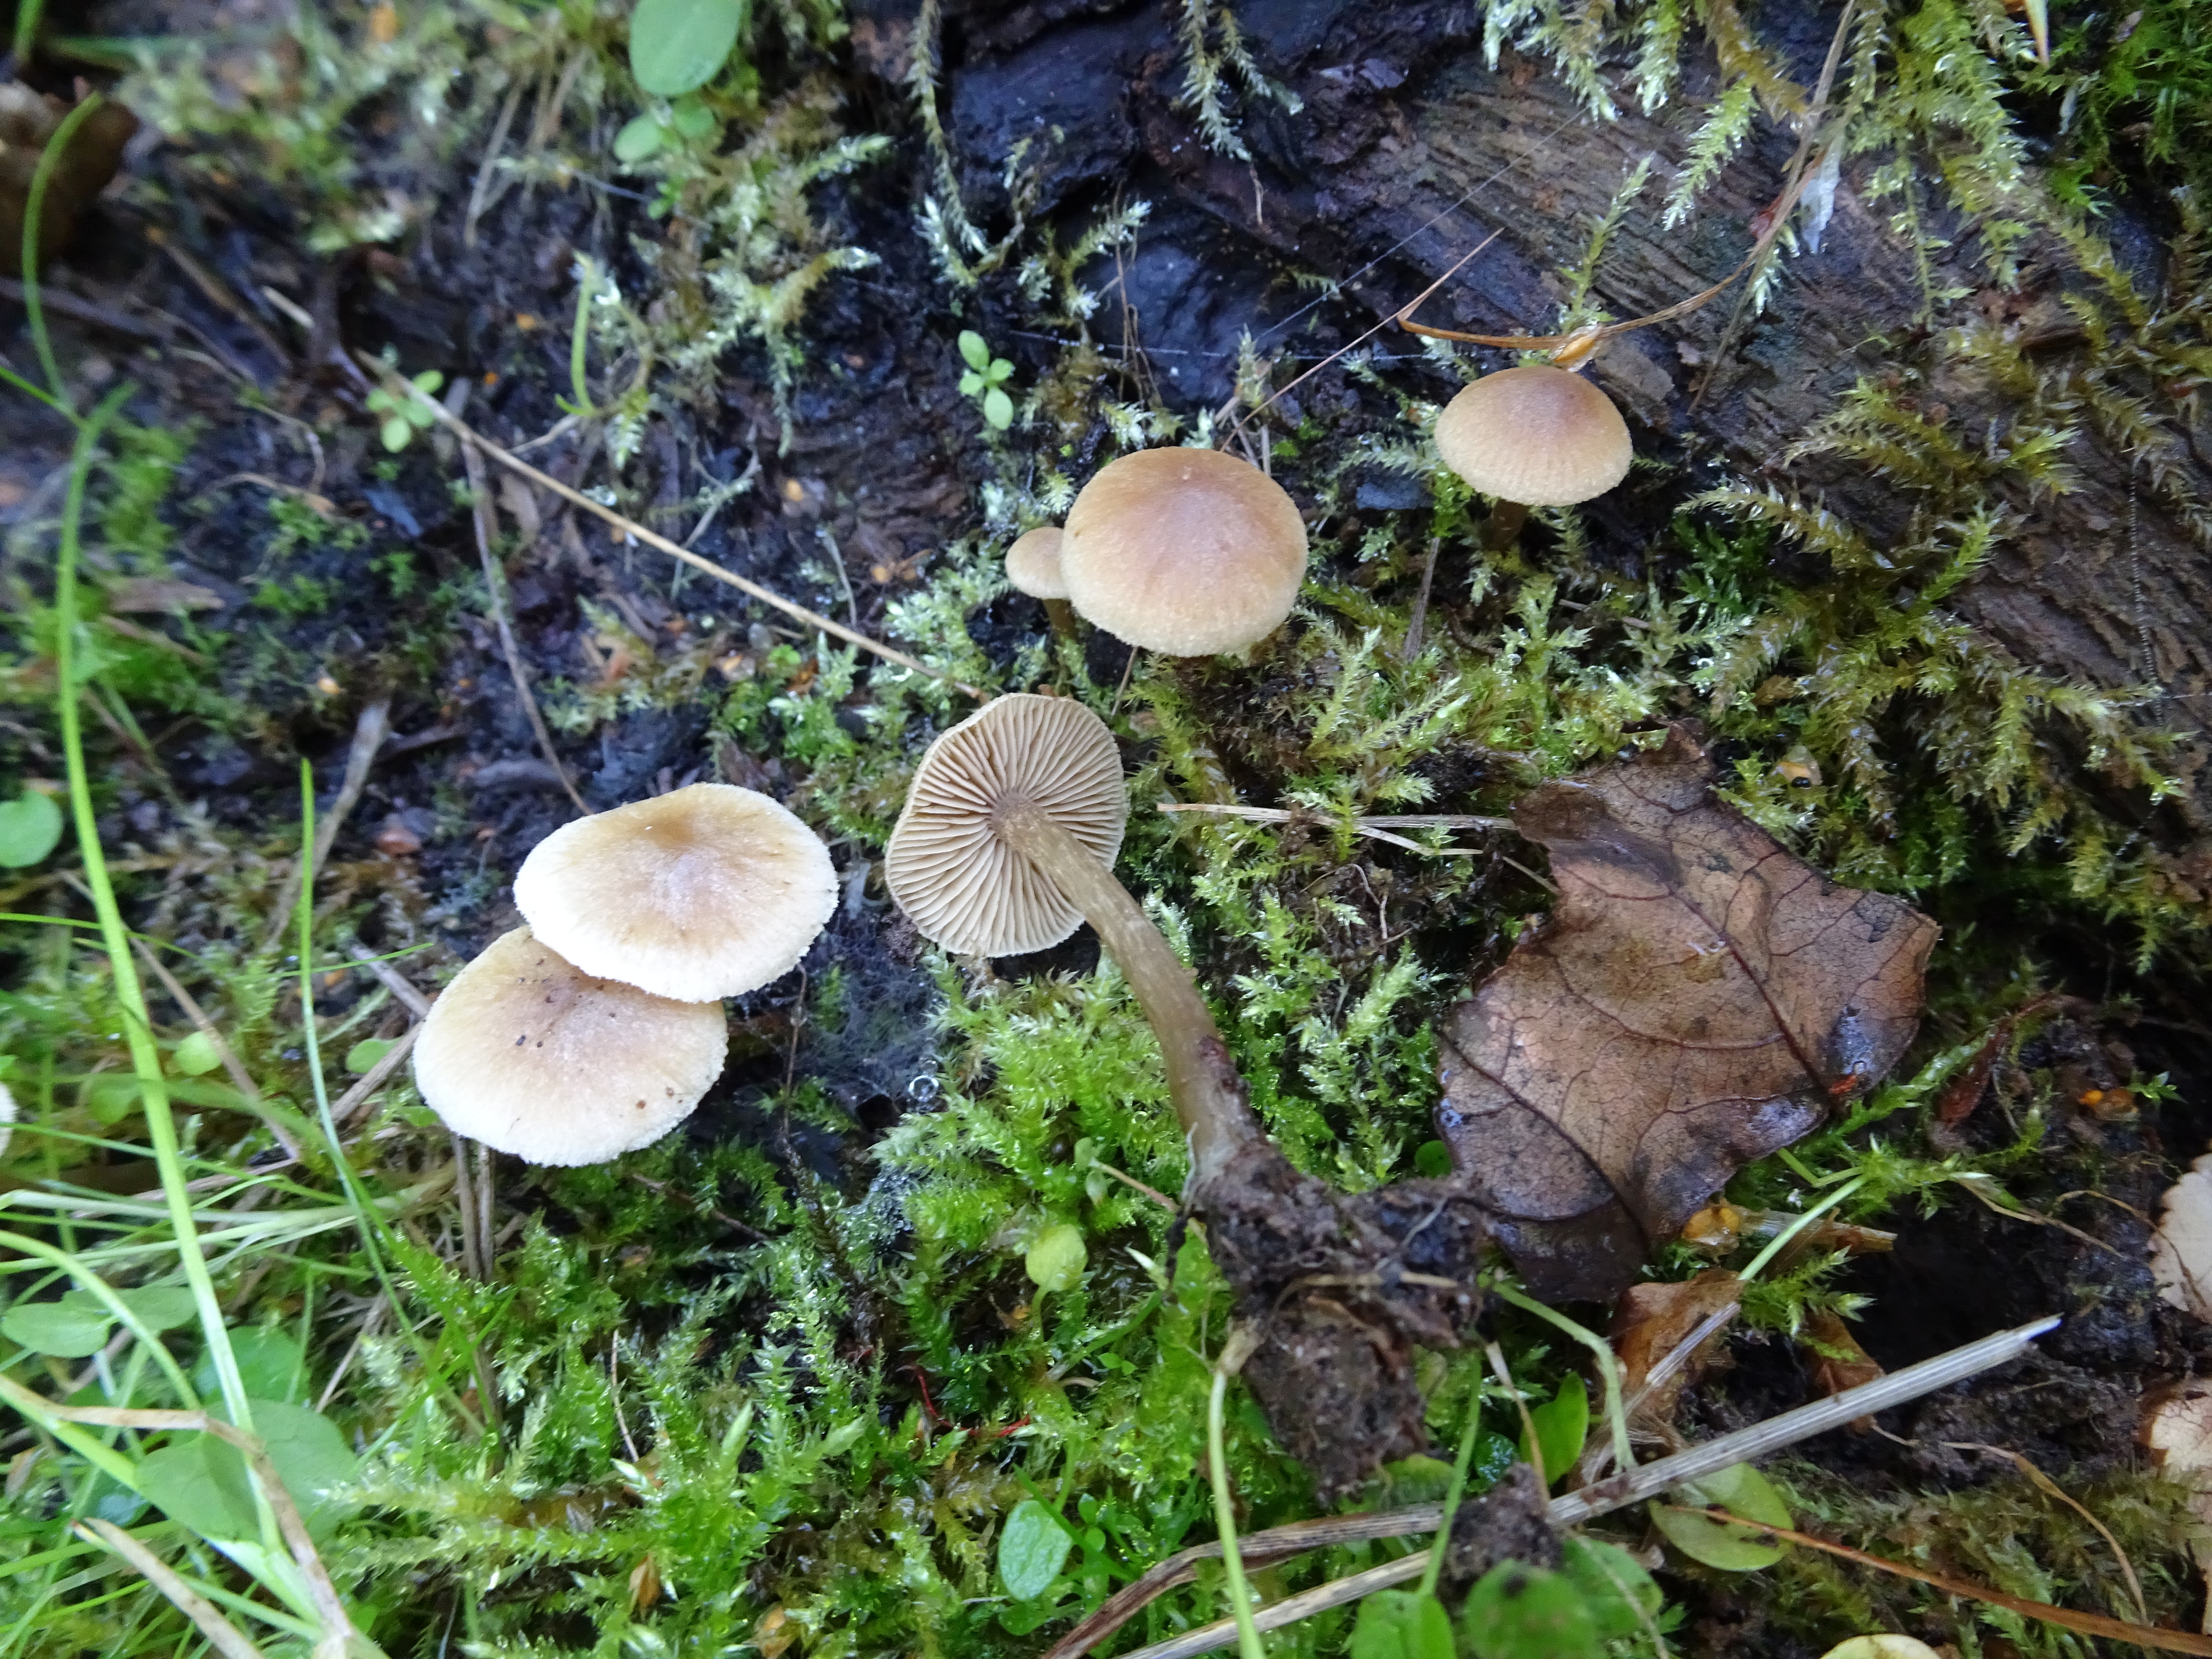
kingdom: Fungi
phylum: Basidiomycota
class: Agaricomycetes
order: Agaricales
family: Hymenogastraceae
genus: Naucoria
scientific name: Naucoria
